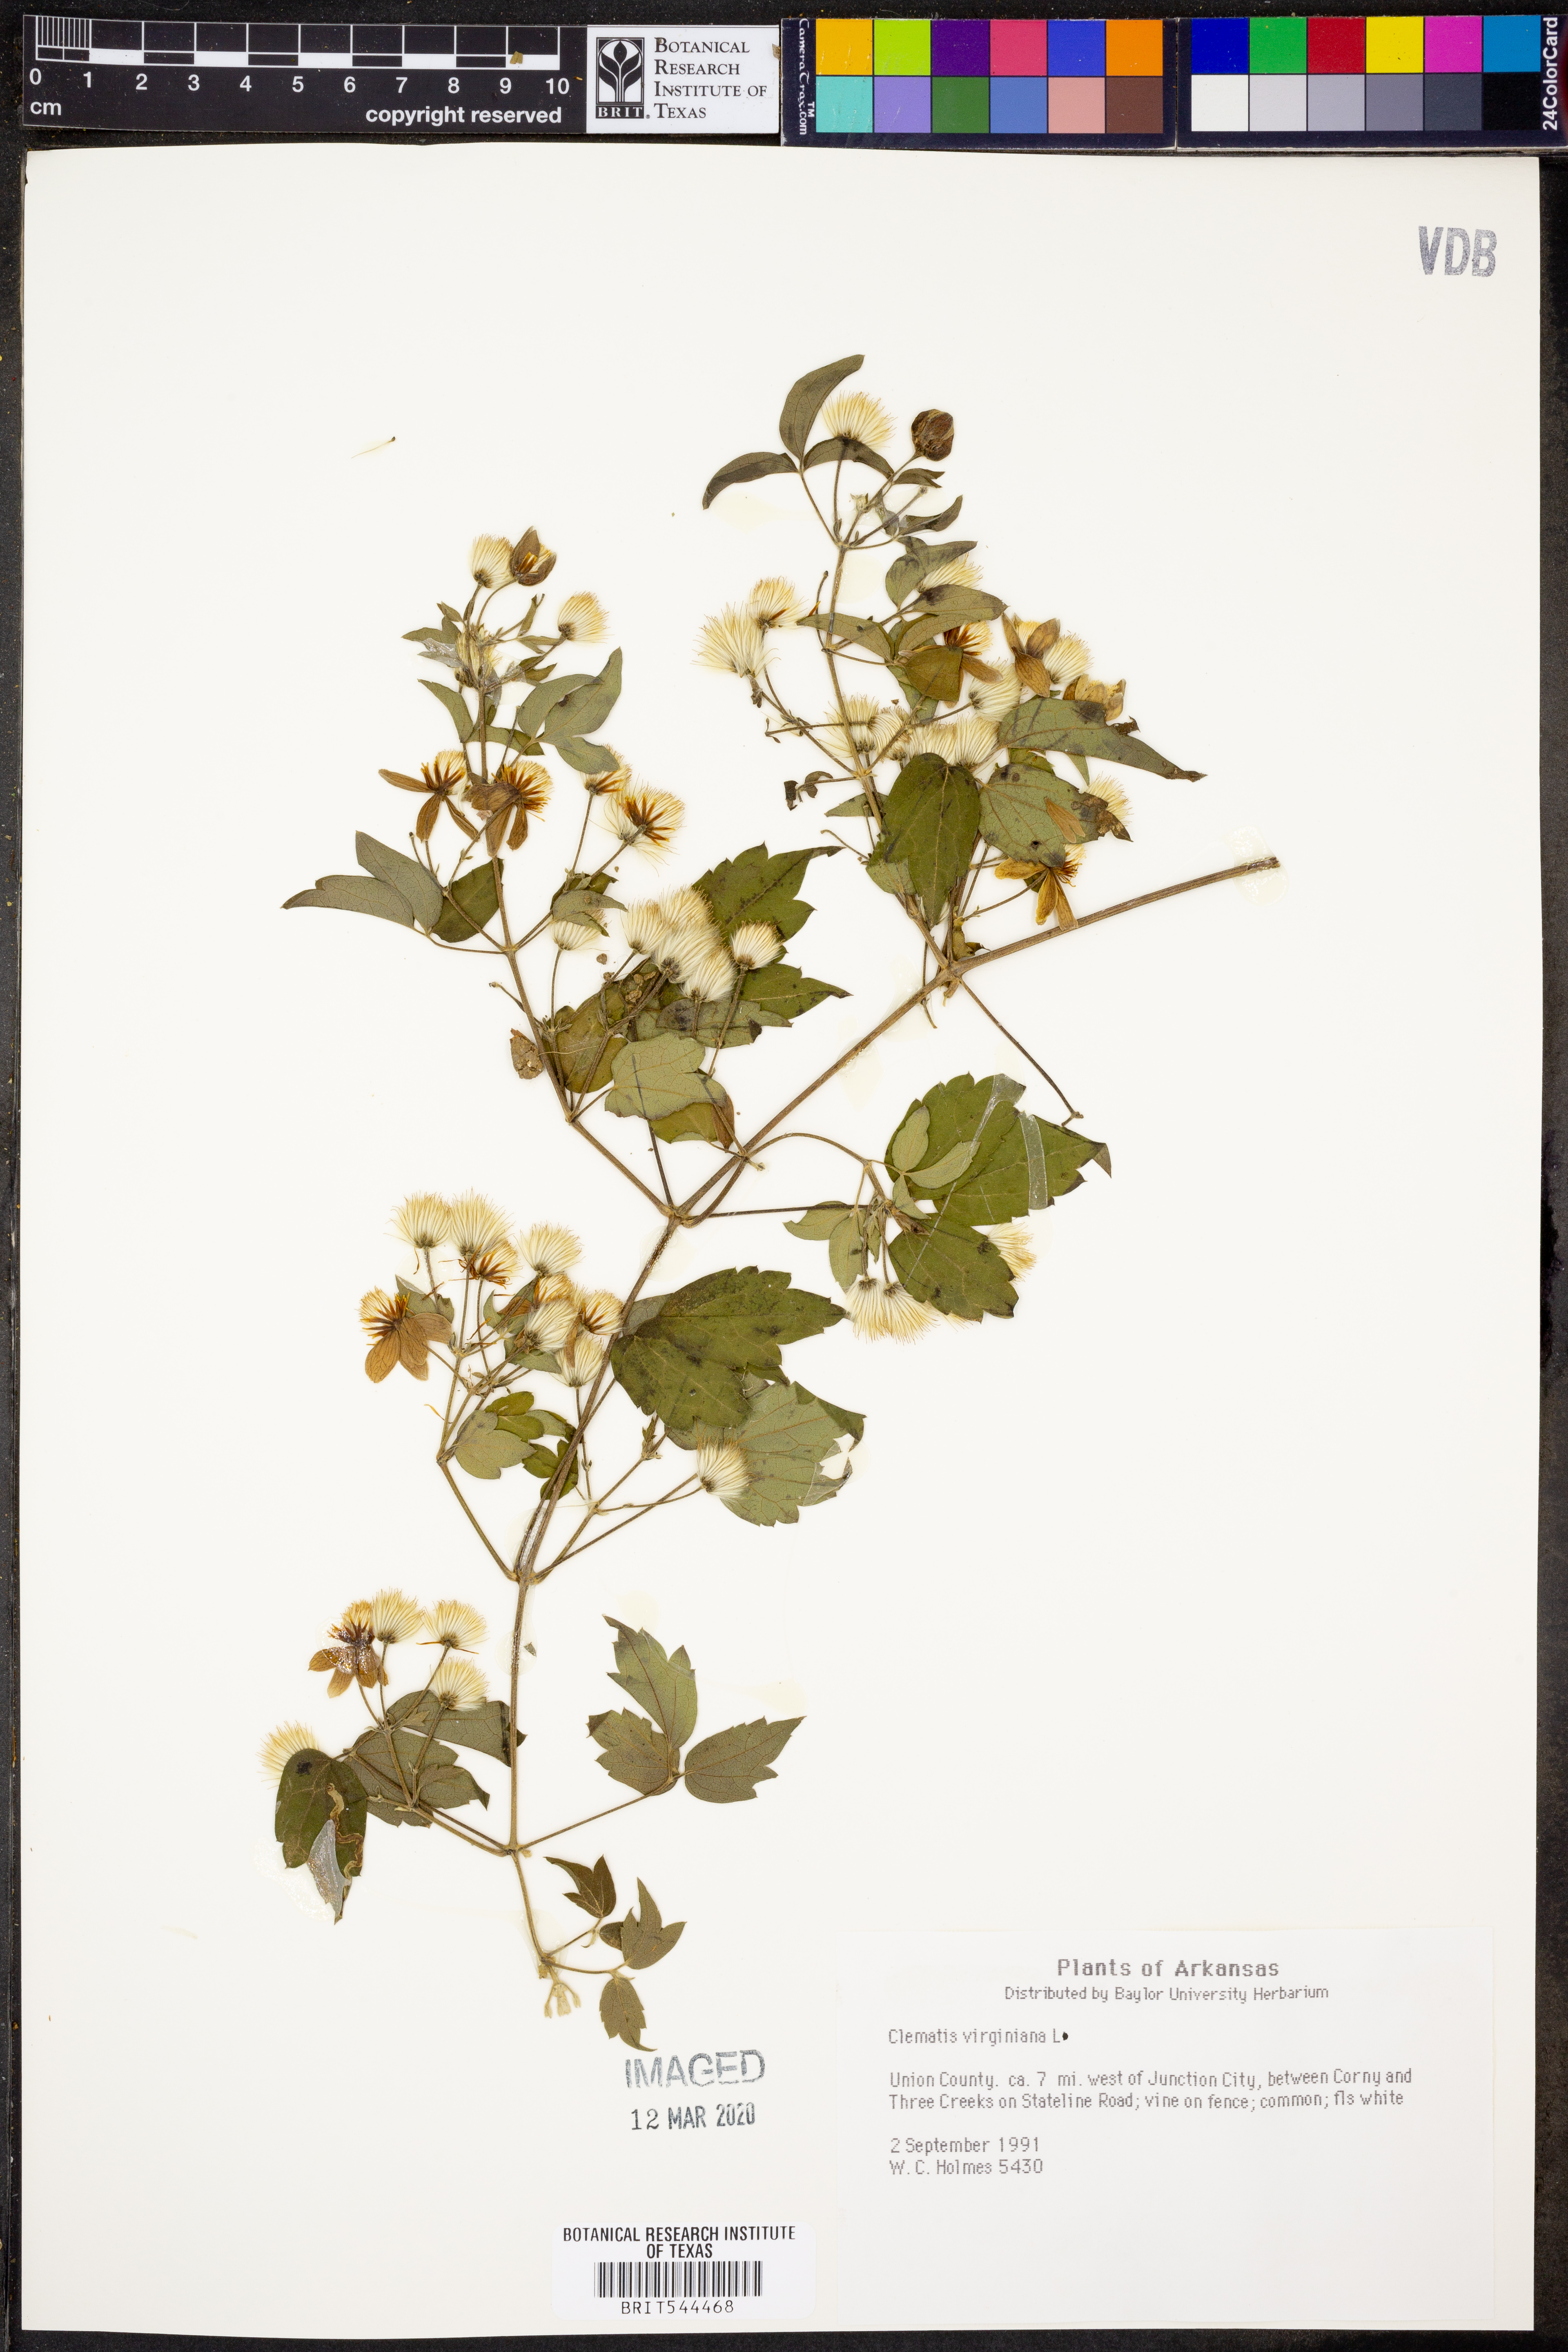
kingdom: Plantae
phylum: Tracheophyta
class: Magnoliopsida
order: Ranunculales
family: Ranunculaceae
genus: Clematis
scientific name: Clematis virginiana
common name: Virgin's-bower
